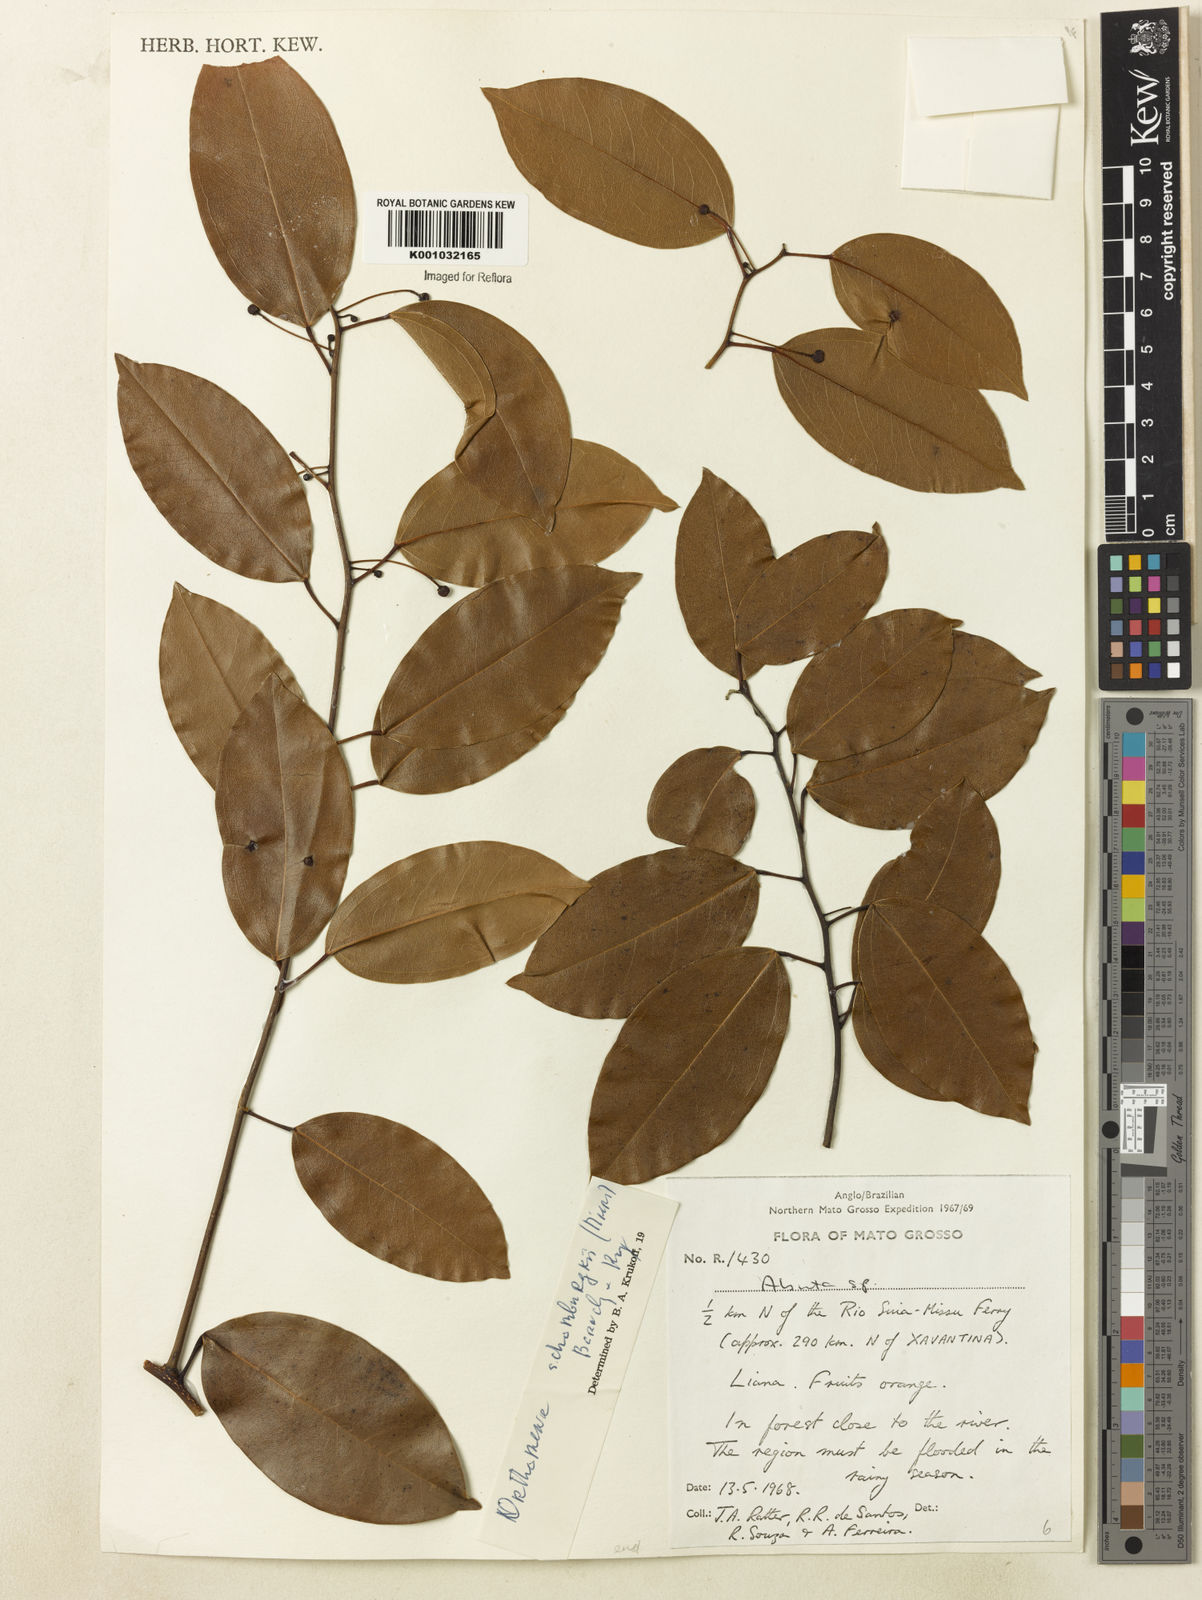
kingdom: Plantae
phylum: Tracheophyta
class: Magnoliopsida
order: Ranunculales
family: Menispermaceae
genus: Orthomene
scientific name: Orthomene schomburgkii
